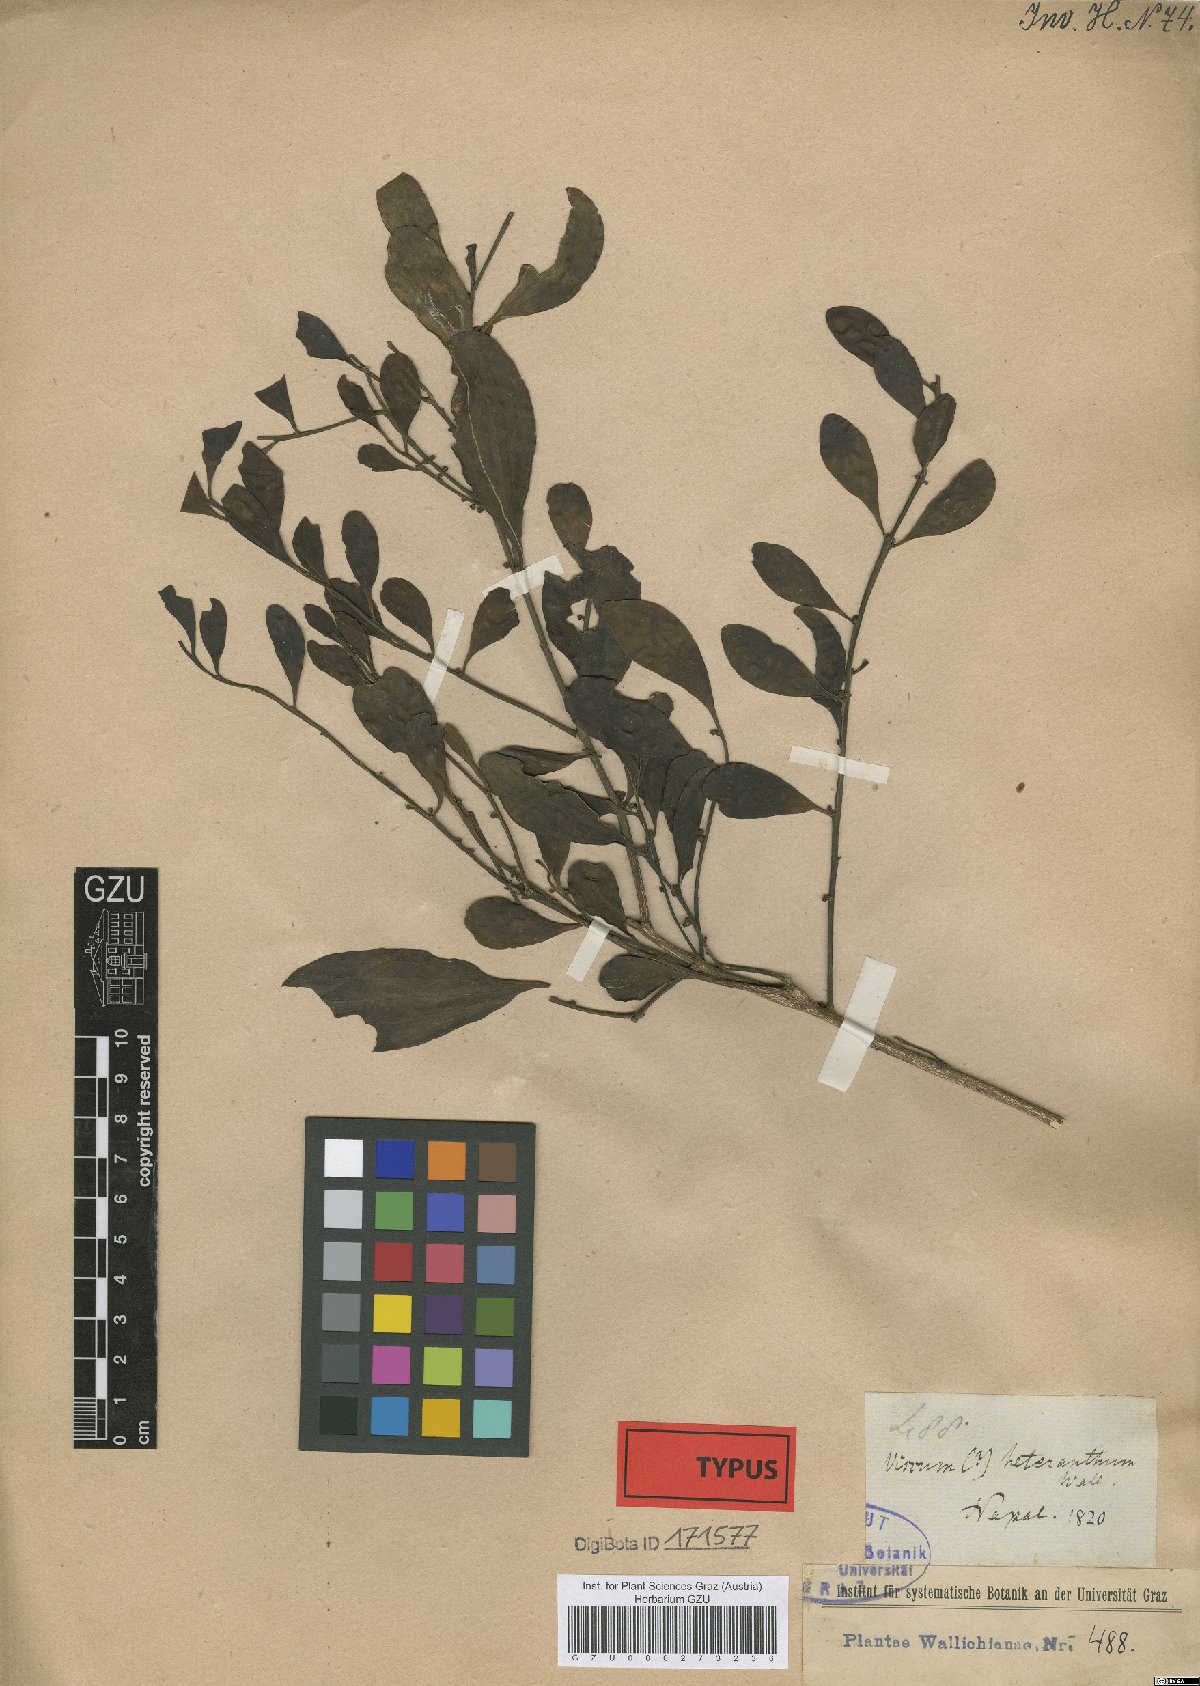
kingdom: Plantae
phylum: Tracheophyta
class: Magnoliopsida
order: Santalales
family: Amphorogynaceae
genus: Dendrotrophe
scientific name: Dendrotrophe platyphylla
